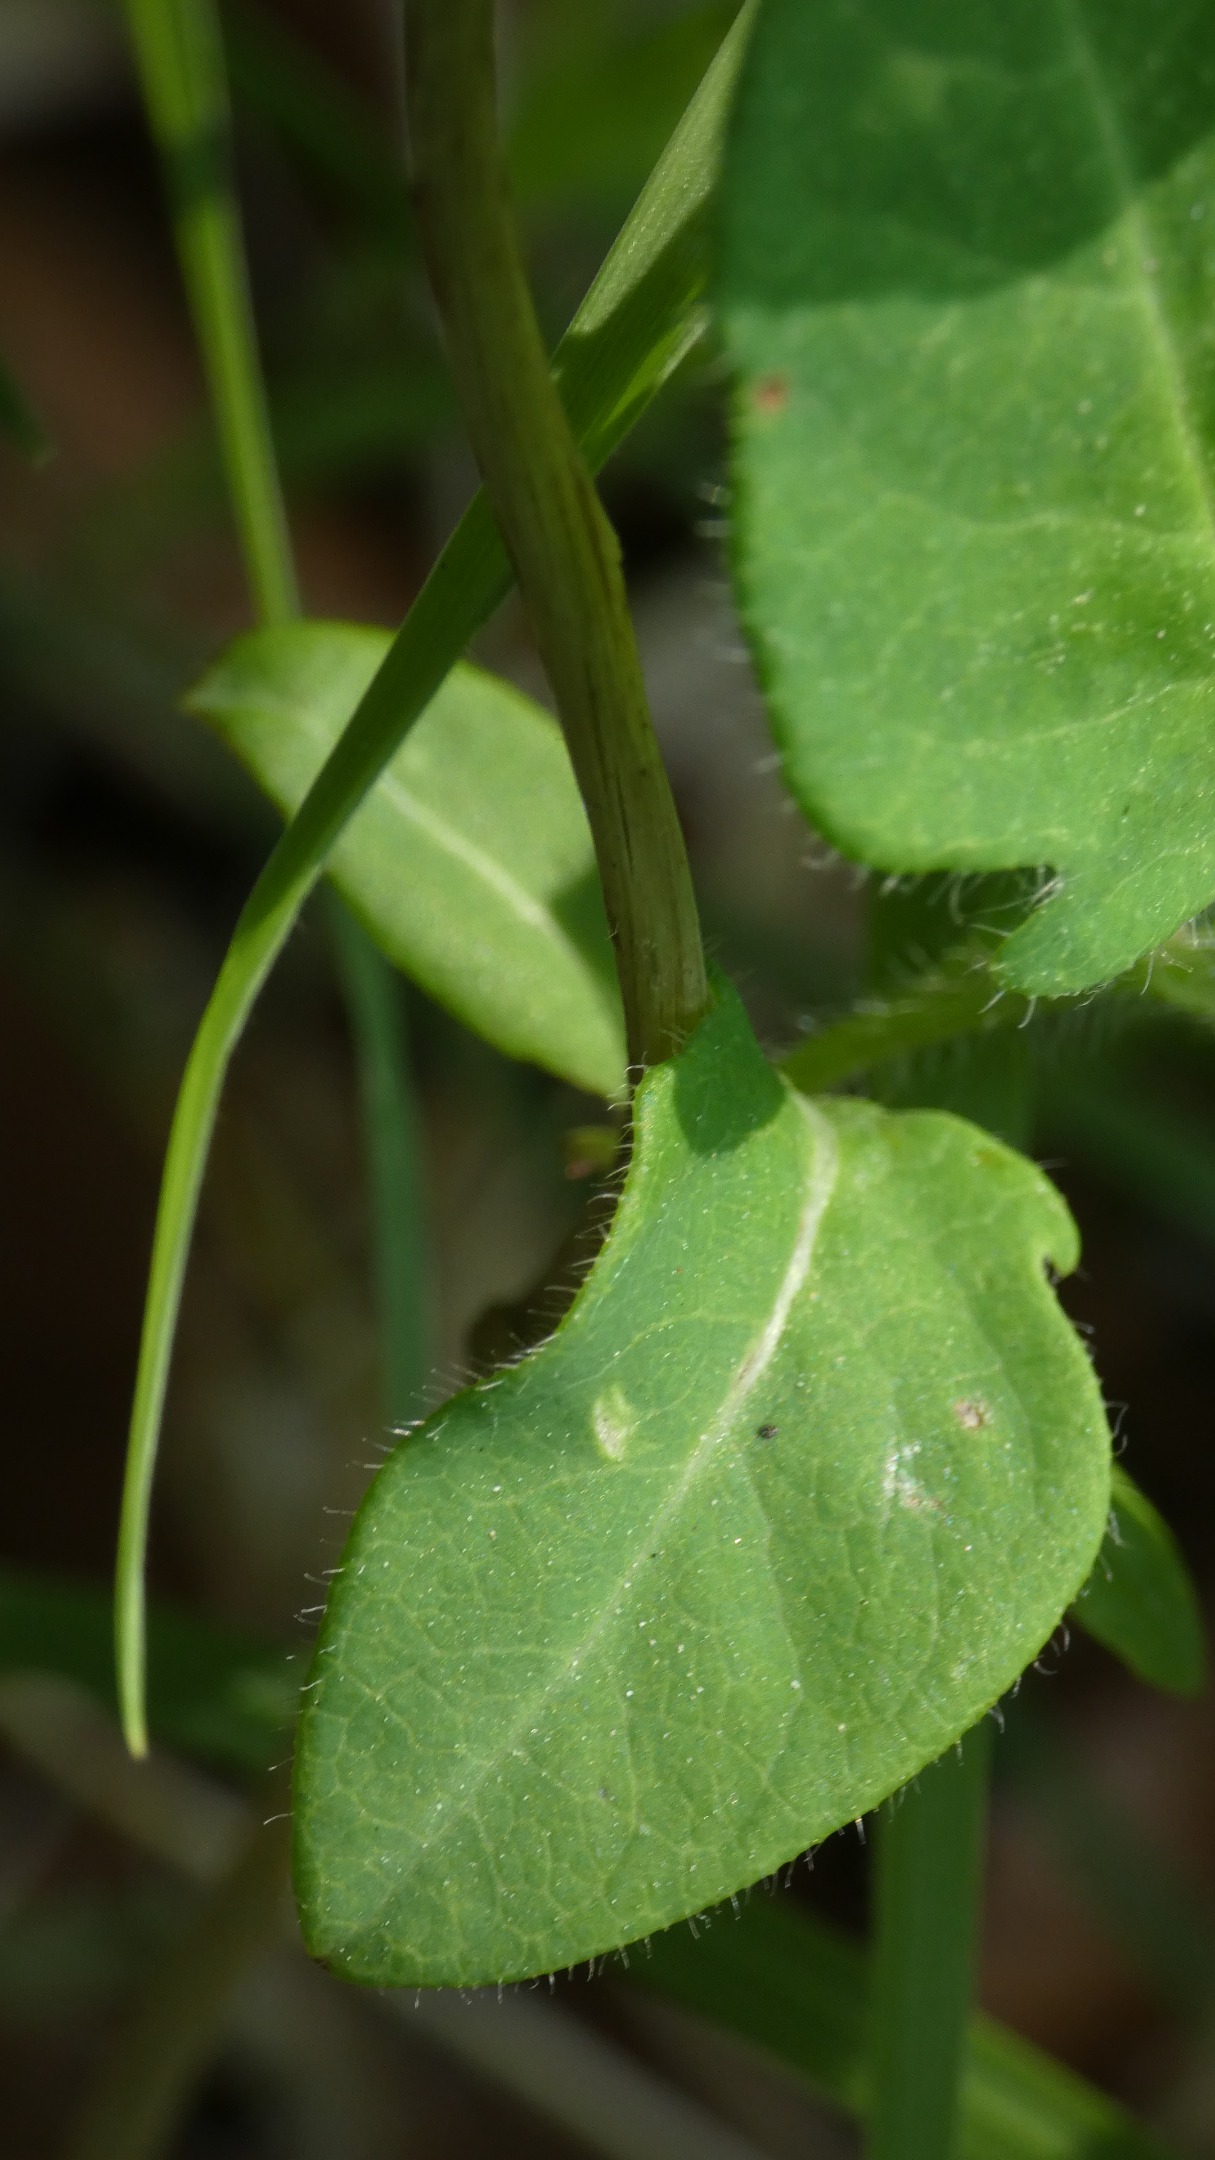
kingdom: Plantae
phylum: Tracheophyta
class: Magnoliopsida
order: Dipsacales
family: Caprifoliaceae
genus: Lonicera
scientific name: Lonicera periclymenum
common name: Almindelig gedeblad
